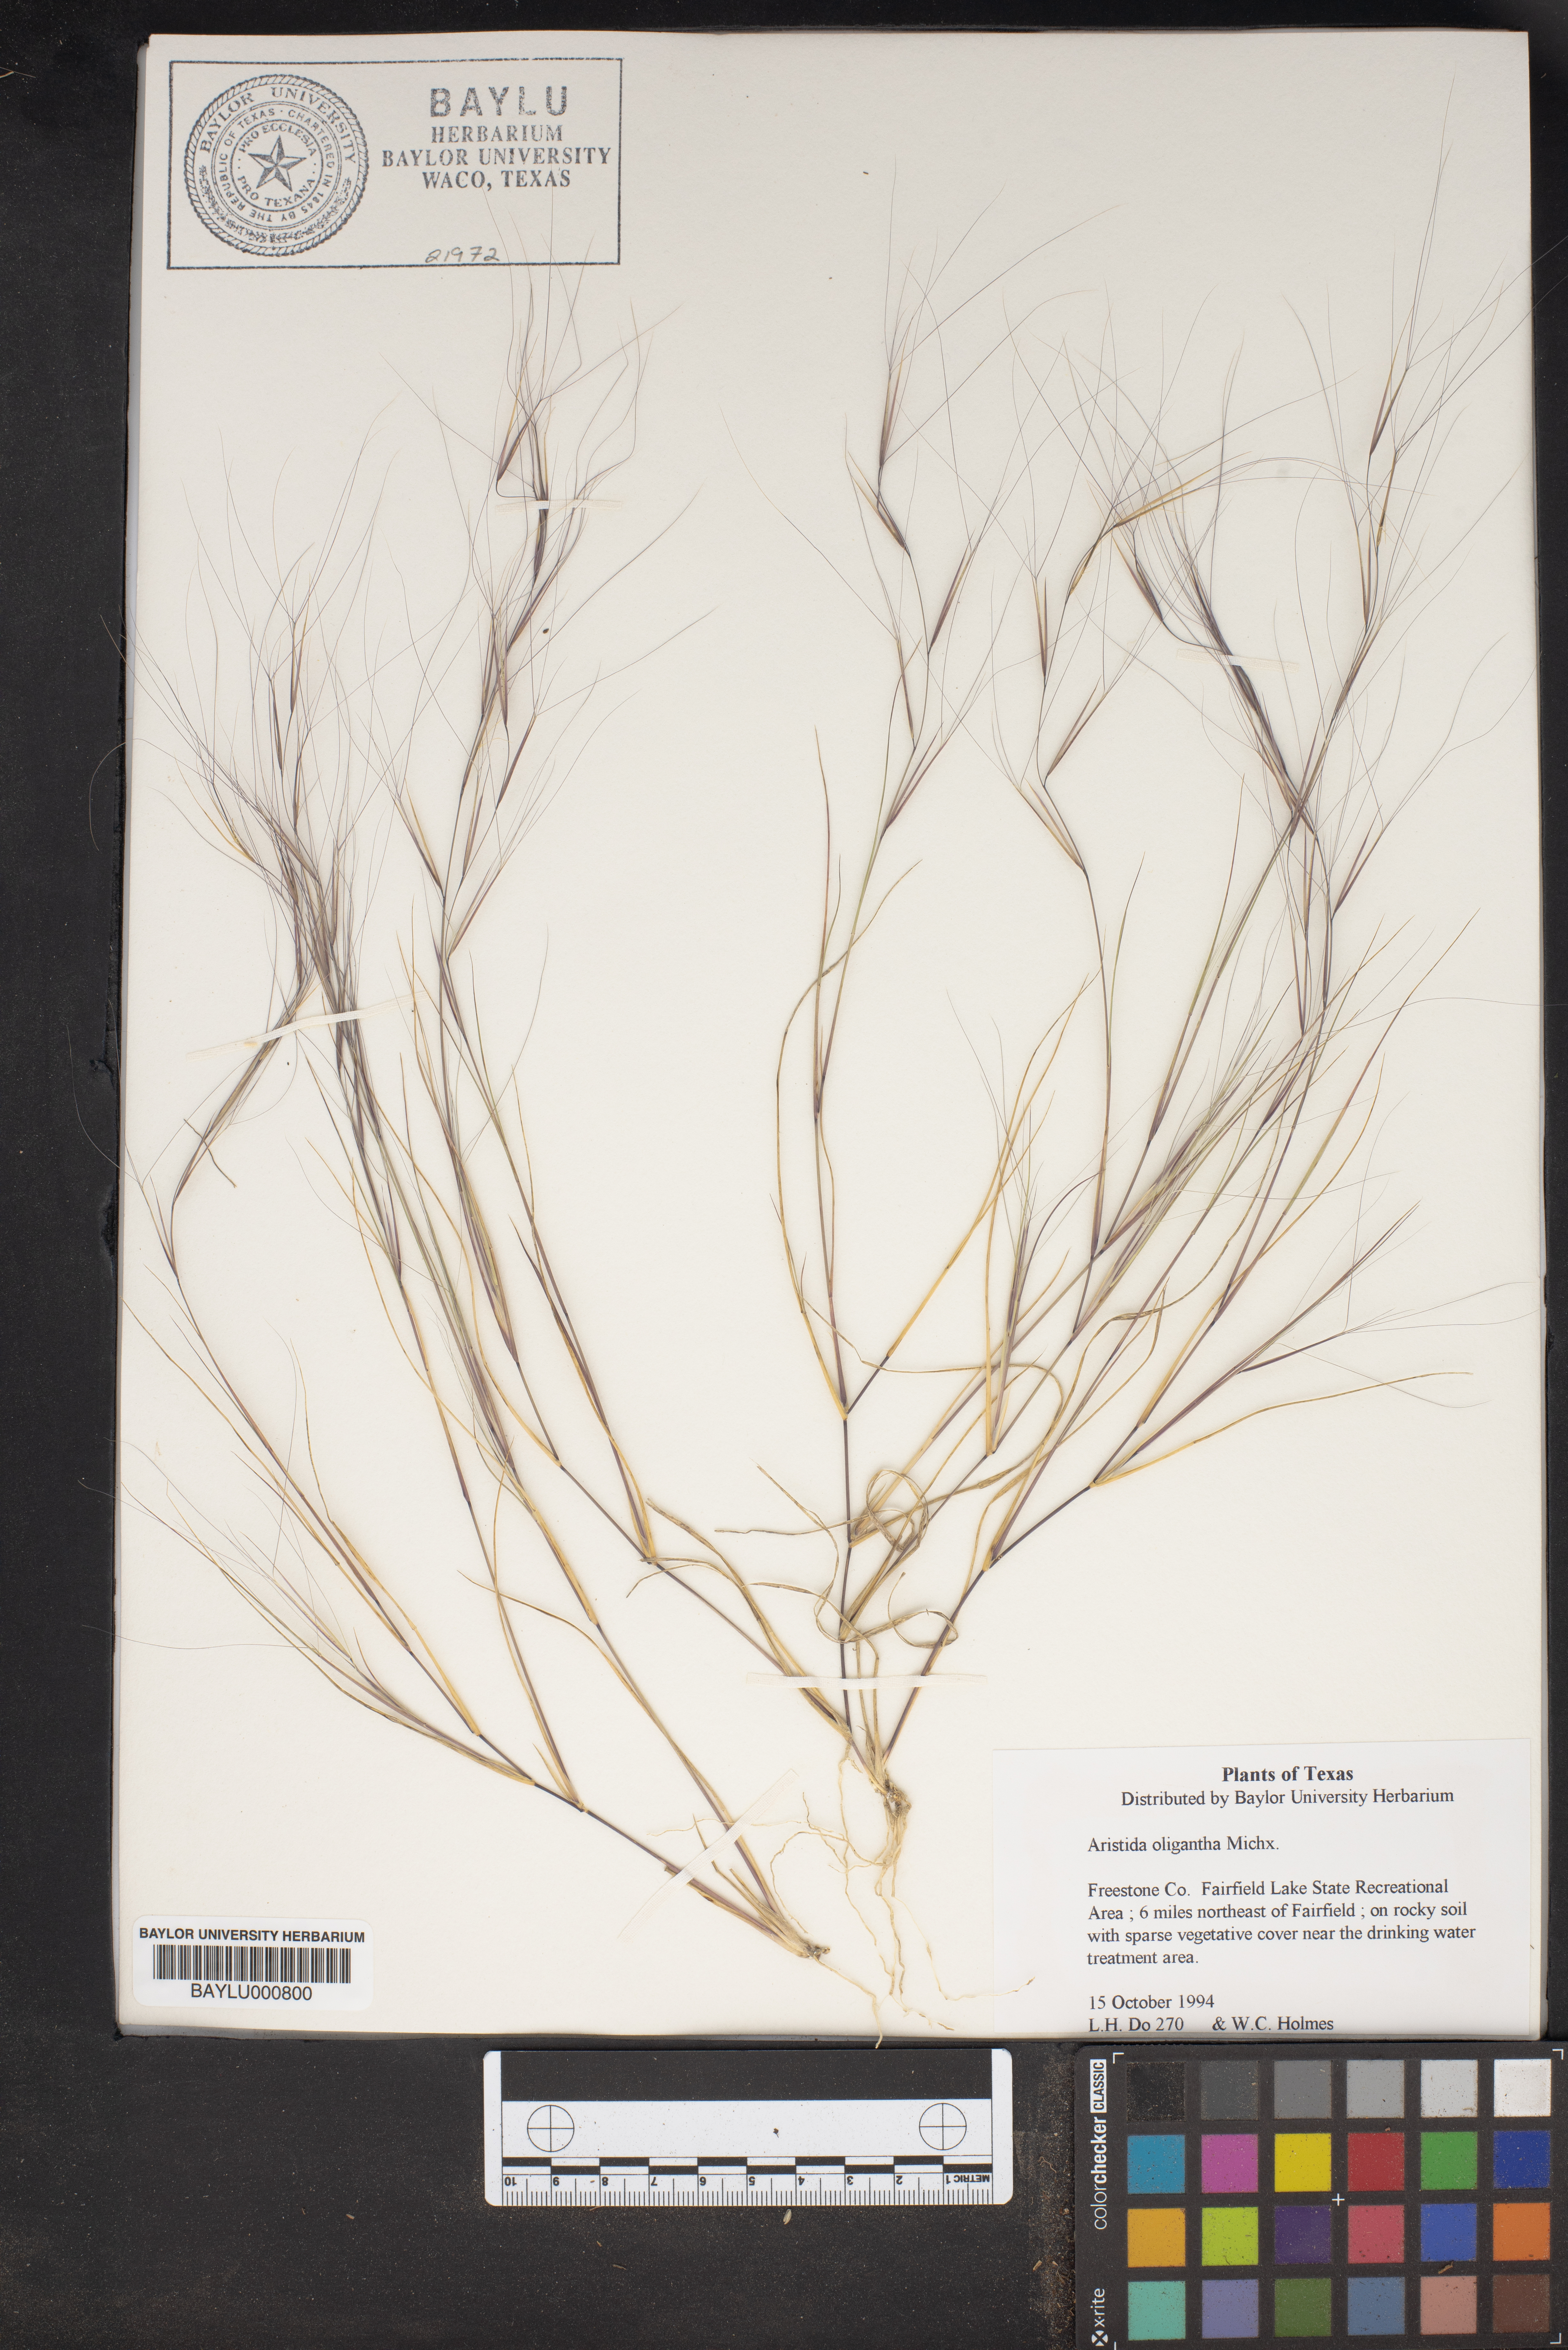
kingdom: Plantae
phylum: Tracheophyta
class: Liliopsida
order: Poales
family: Poaceae
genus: Aristida
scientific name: Aristida oligantha
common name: Few-flowered aristida
